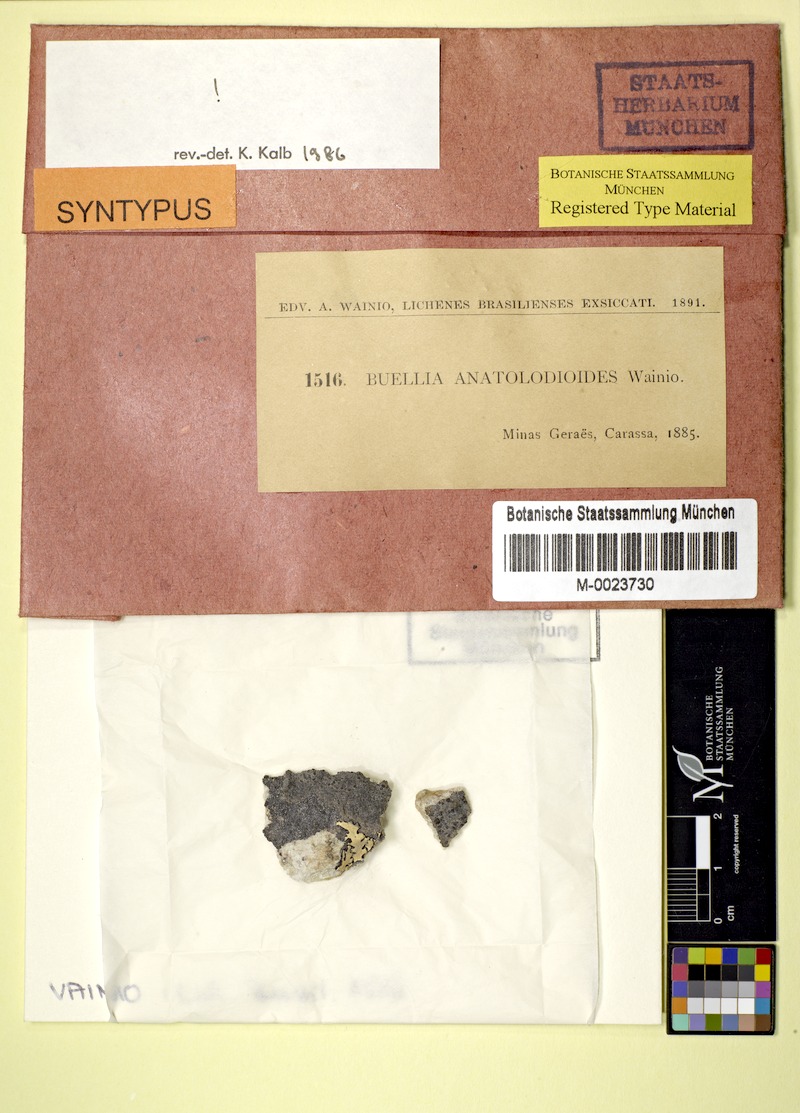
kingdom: Fungi
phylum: Ascomycota
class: Lecanoromycetes
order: Caliciales
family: Caliciaceae
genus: Buellia
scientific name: Buellia
